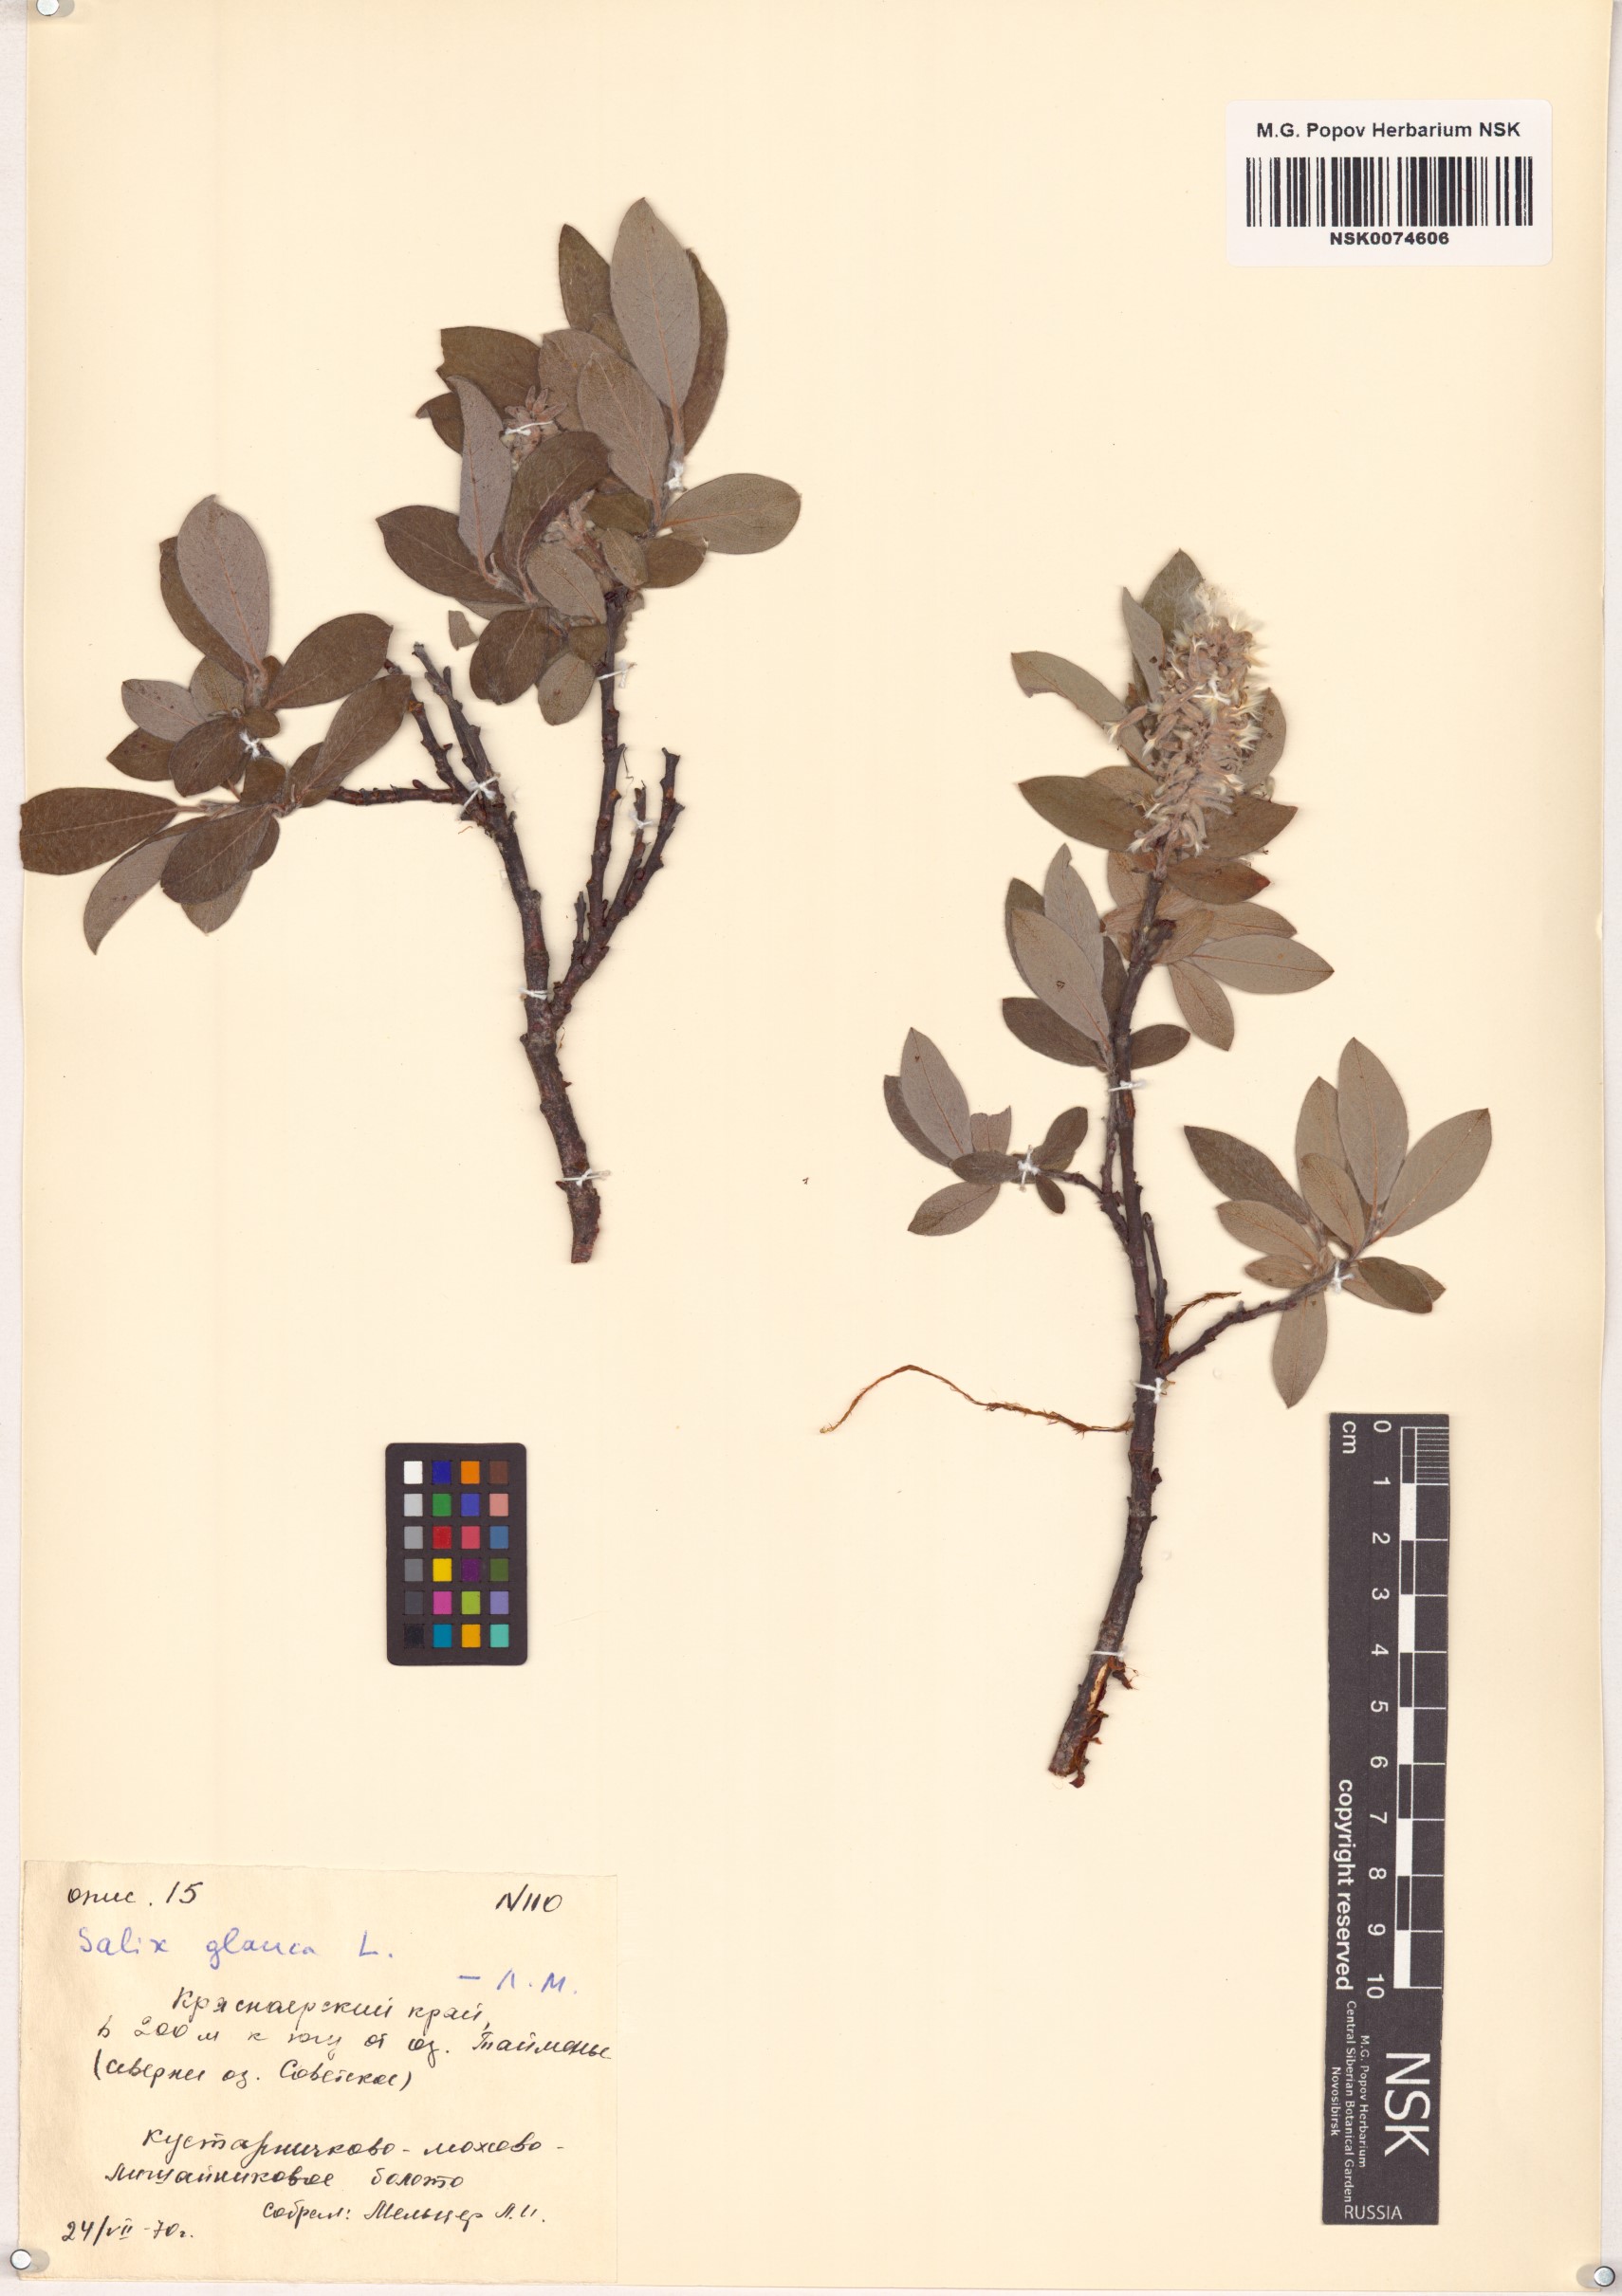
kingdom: Plantae
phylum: Tracheophyta
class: Magnoliopsida
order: Malpighiales
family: Salicaceae
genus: Salix
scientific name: Salix glauca
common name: Glaucous willow
